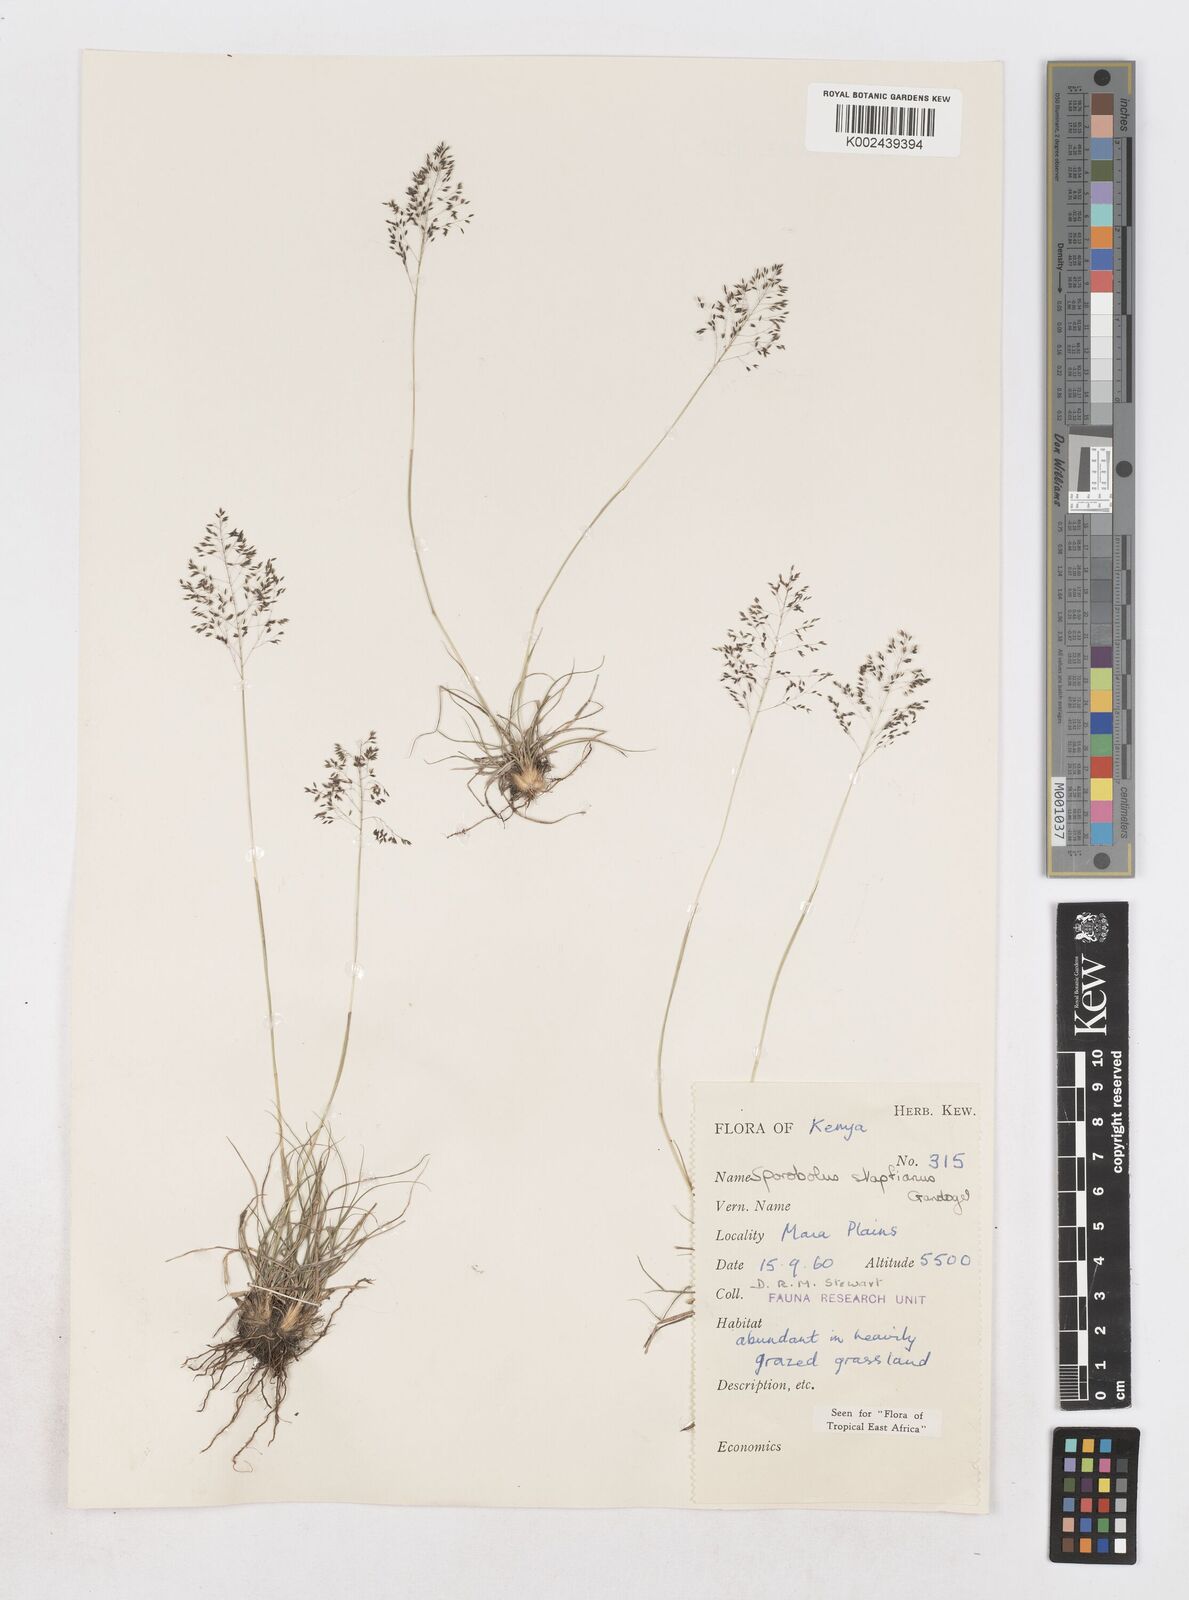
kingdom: Plantae
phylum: Tracheophyta
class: Liliopsida
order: Poales
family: Poaceae
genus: Sporobolus
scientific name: Sporobolus stapfianus
